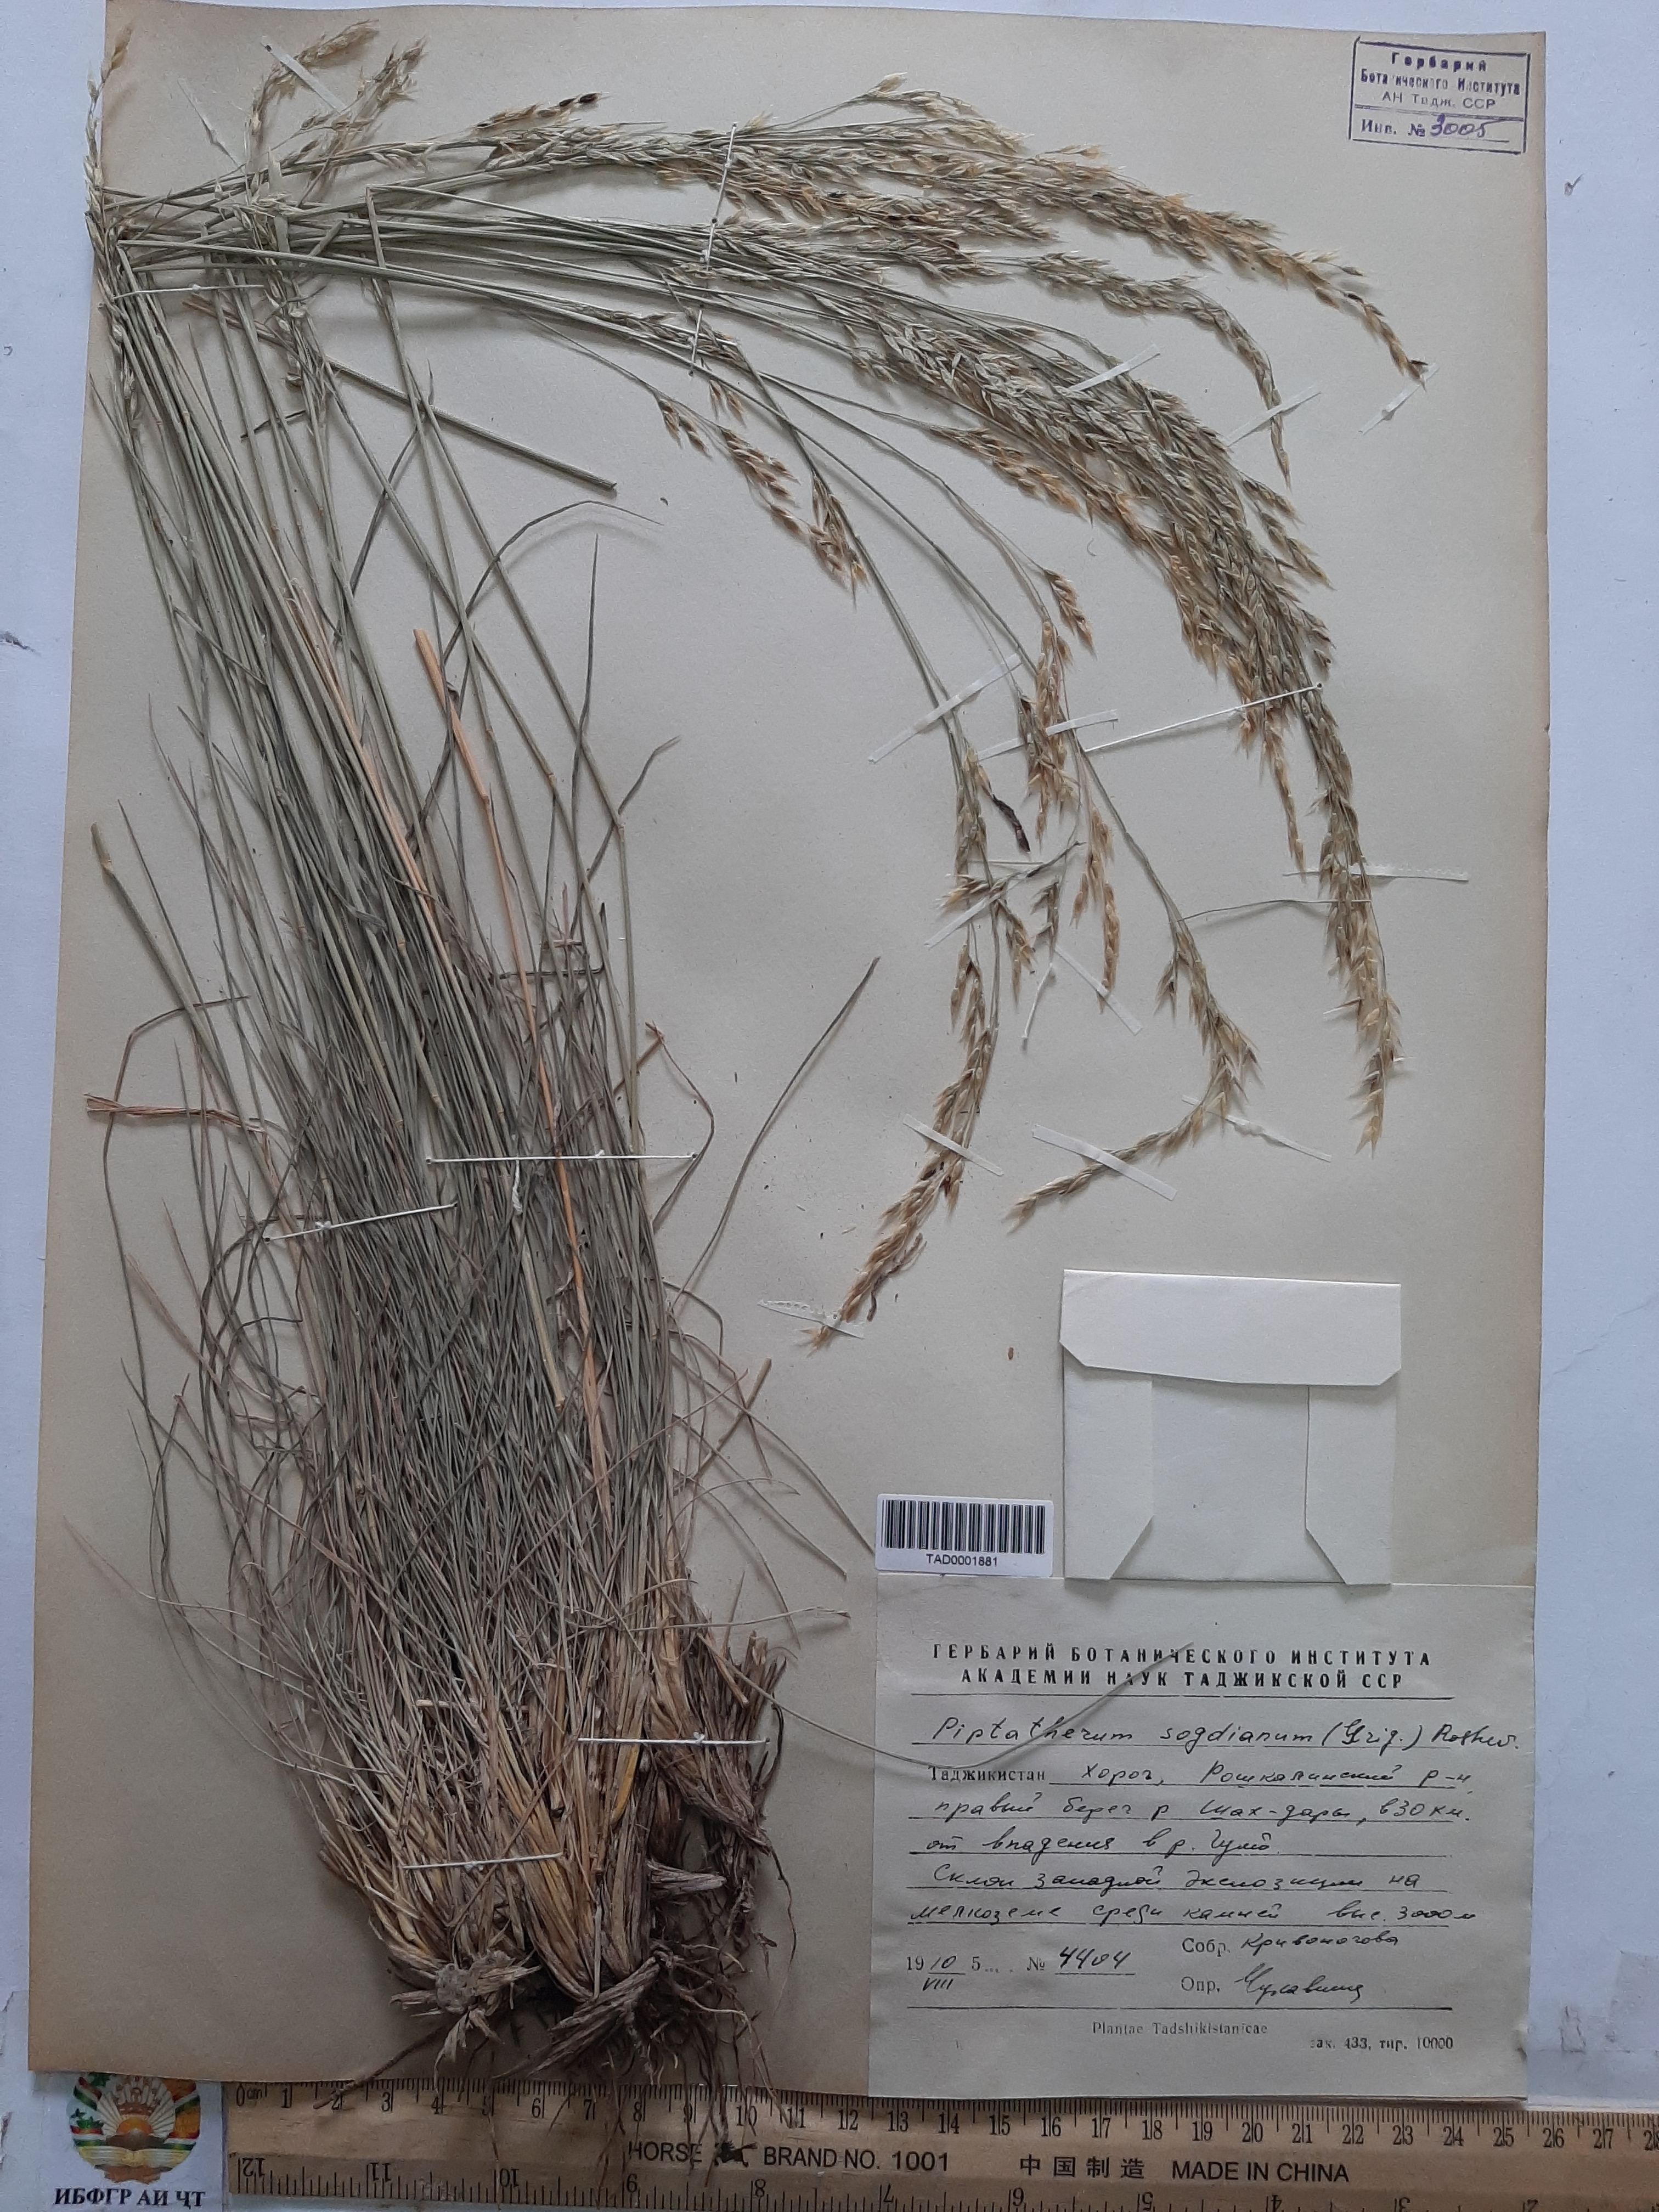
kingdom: Plantae
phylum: Tracheophyta
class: Liliopsida
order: Poales
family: Poaceae
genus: Piptatherum
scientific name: Piptatherum sogdianum
